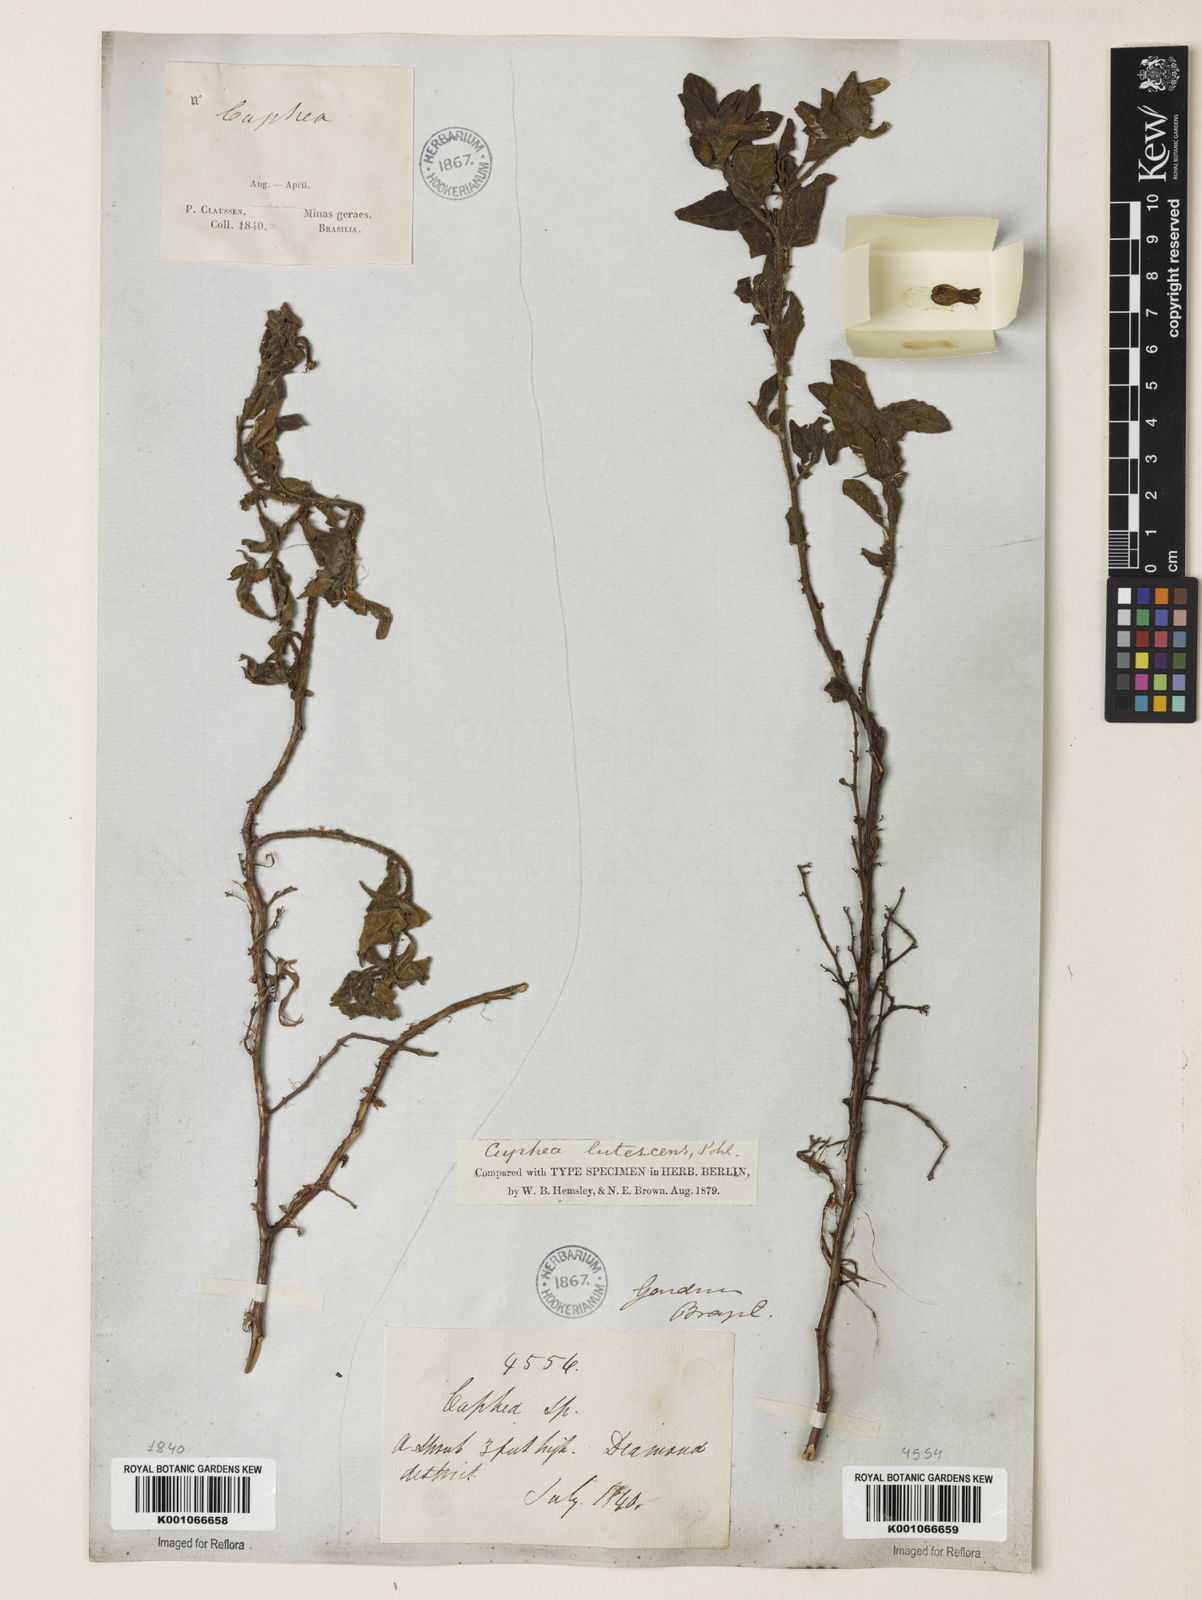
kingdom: Plantae
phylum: Tracheophyta
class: Magnoliopsida
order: Myrtales
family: Lythraceae
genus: Cuphea
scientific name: Cuphea lutescens
